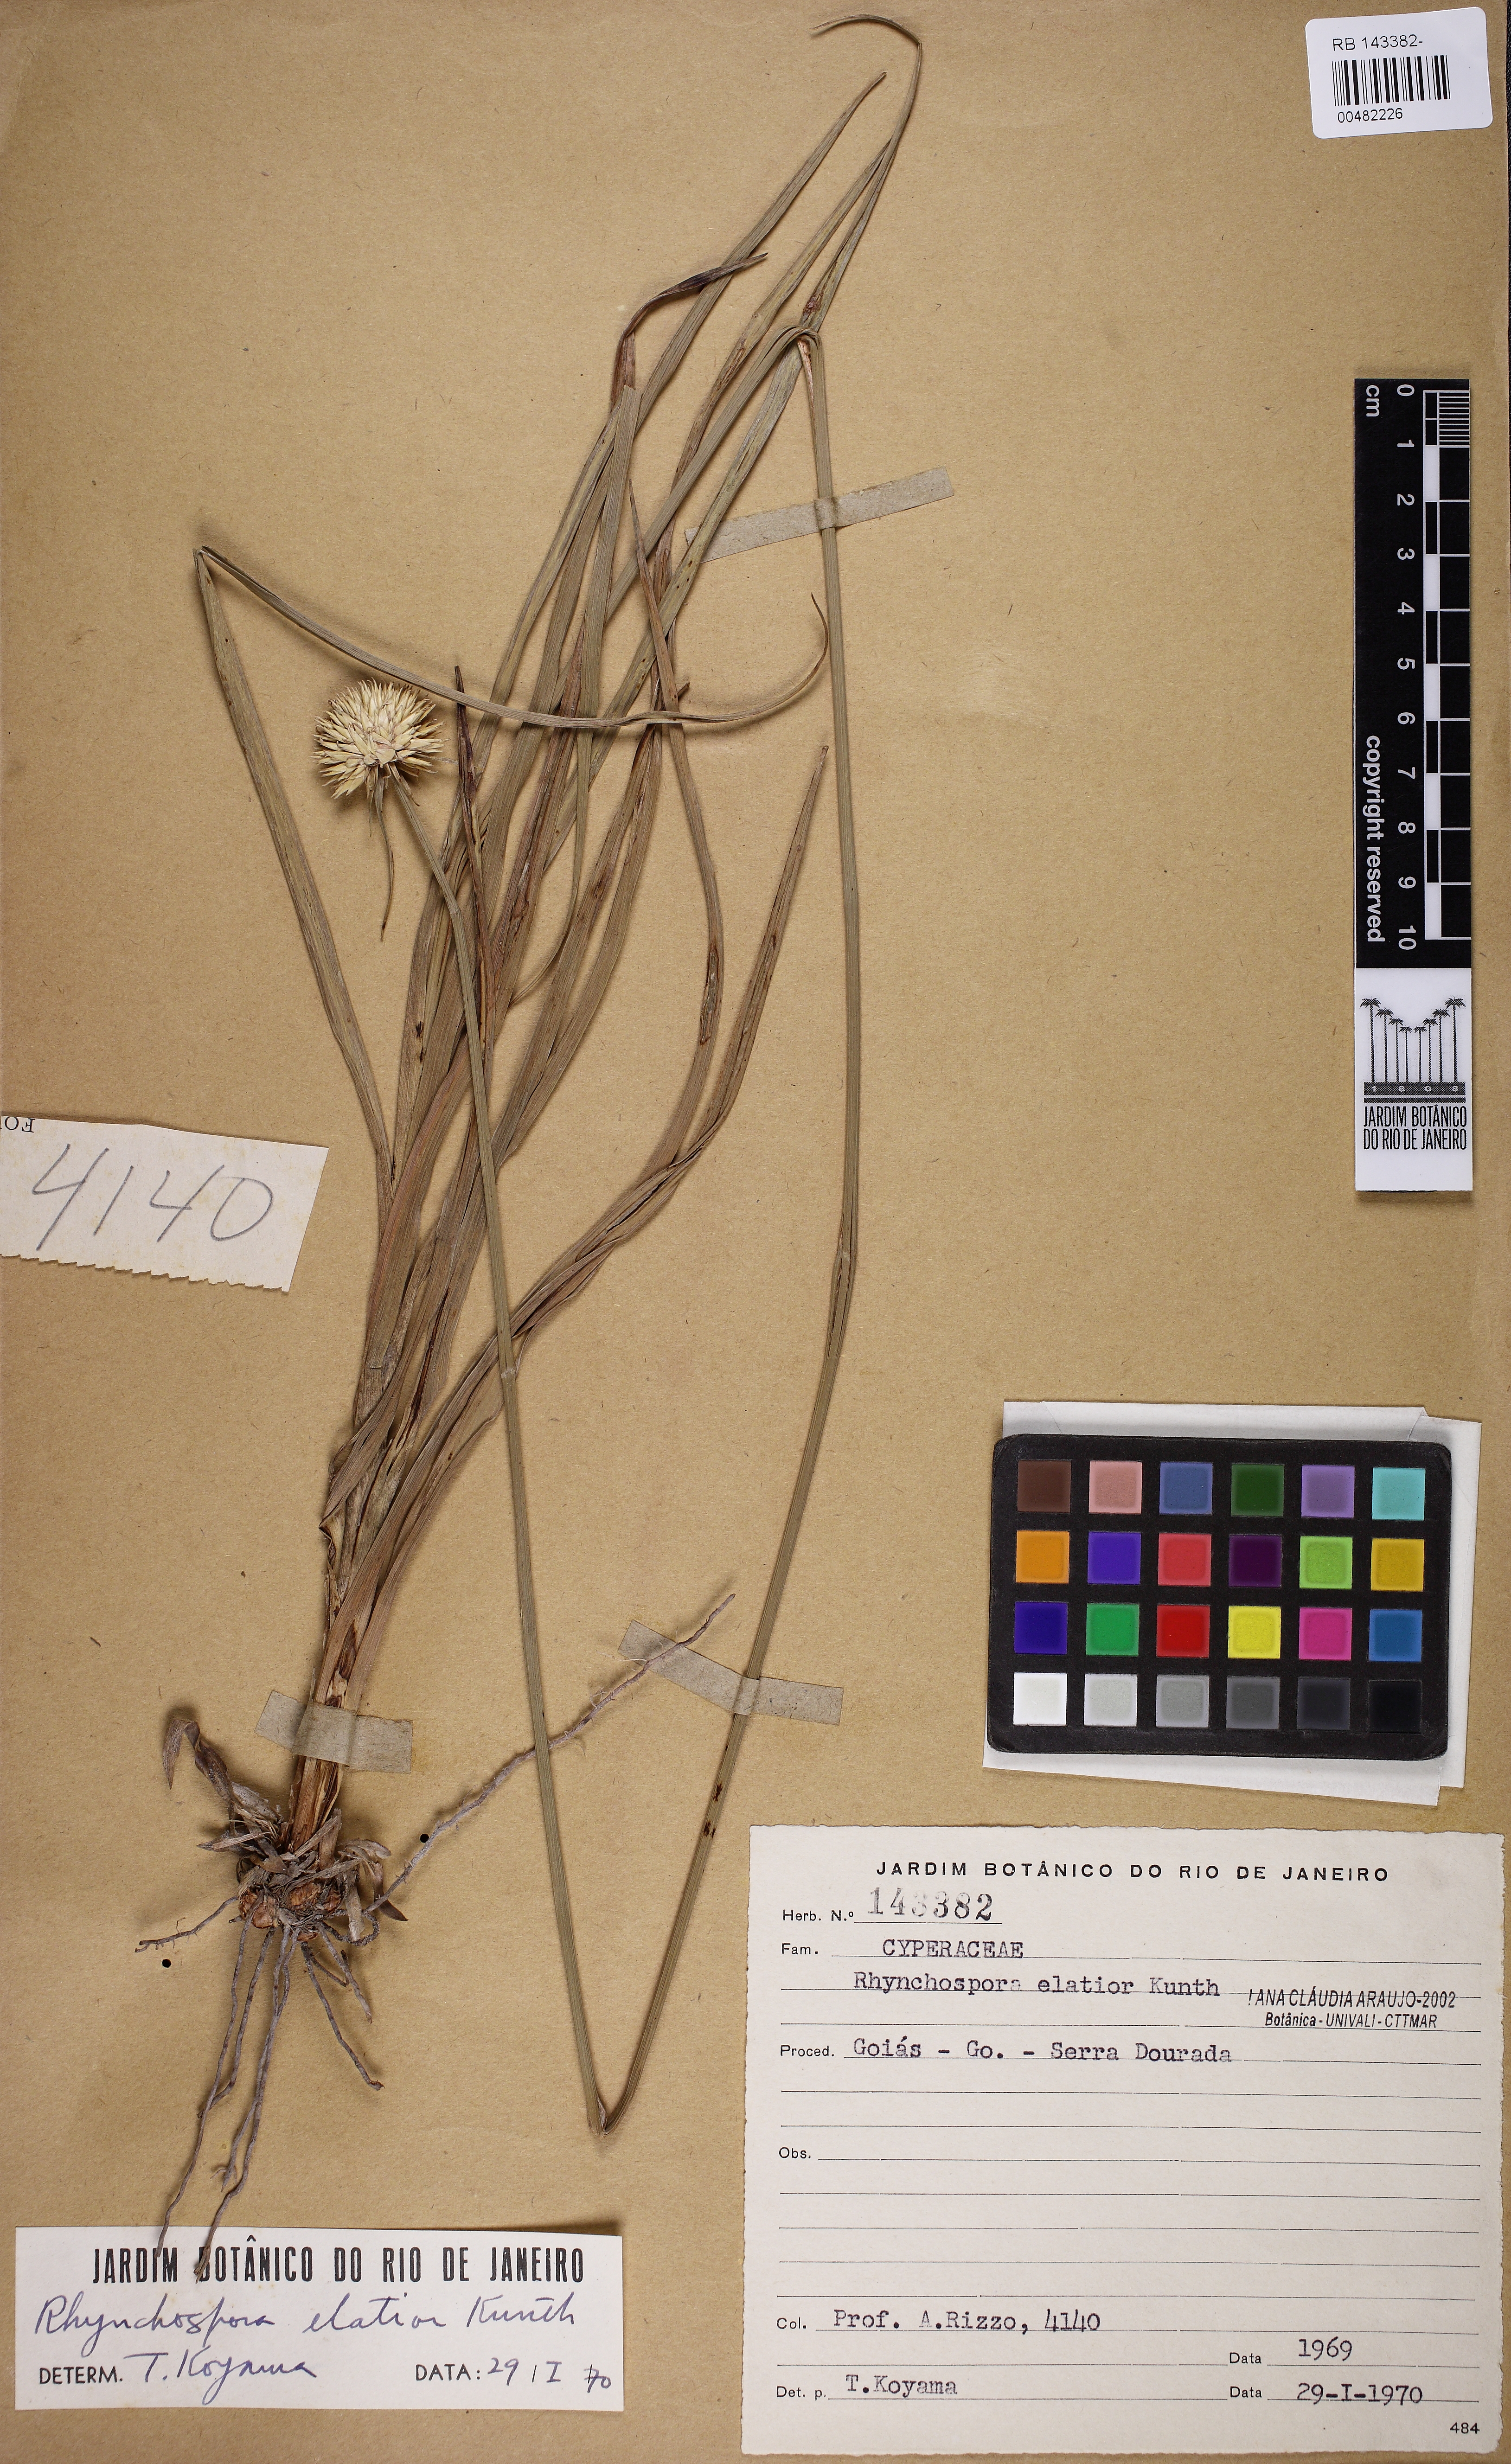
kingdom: Plantae
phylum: Tracheophyta
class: Liliopsida
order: Poales
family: Cyperaceae
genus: Rhynchospora
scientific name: Rhynchospora elatior
